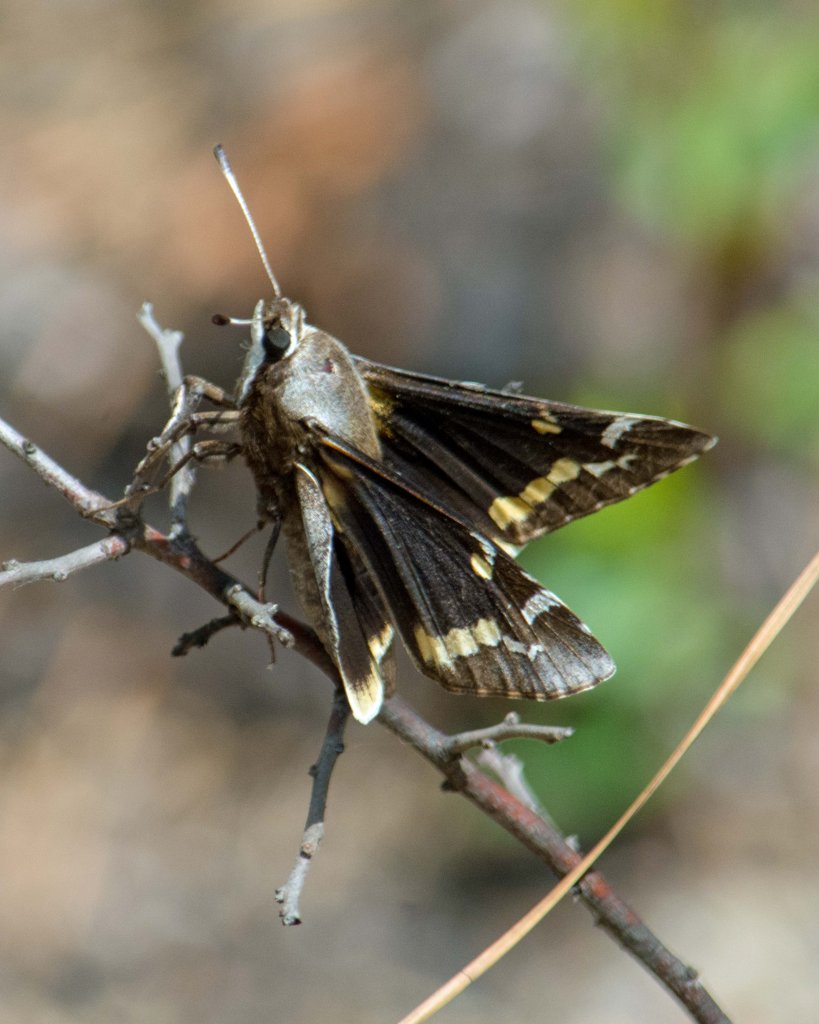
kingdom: Animalia
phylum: Arthropoda
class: Insecta
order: Lepidoptera
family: Hesperiidae
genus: Megathymus
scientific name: Megathymus yuccae
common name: Yucca Giant-Skipper
